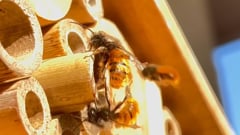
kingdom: Animalia
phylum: Arthropoda
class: Insecta
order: Hymenoptera
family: Megachilidae
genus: Osmia
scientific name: Osmia cornuta
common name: Mason bee
